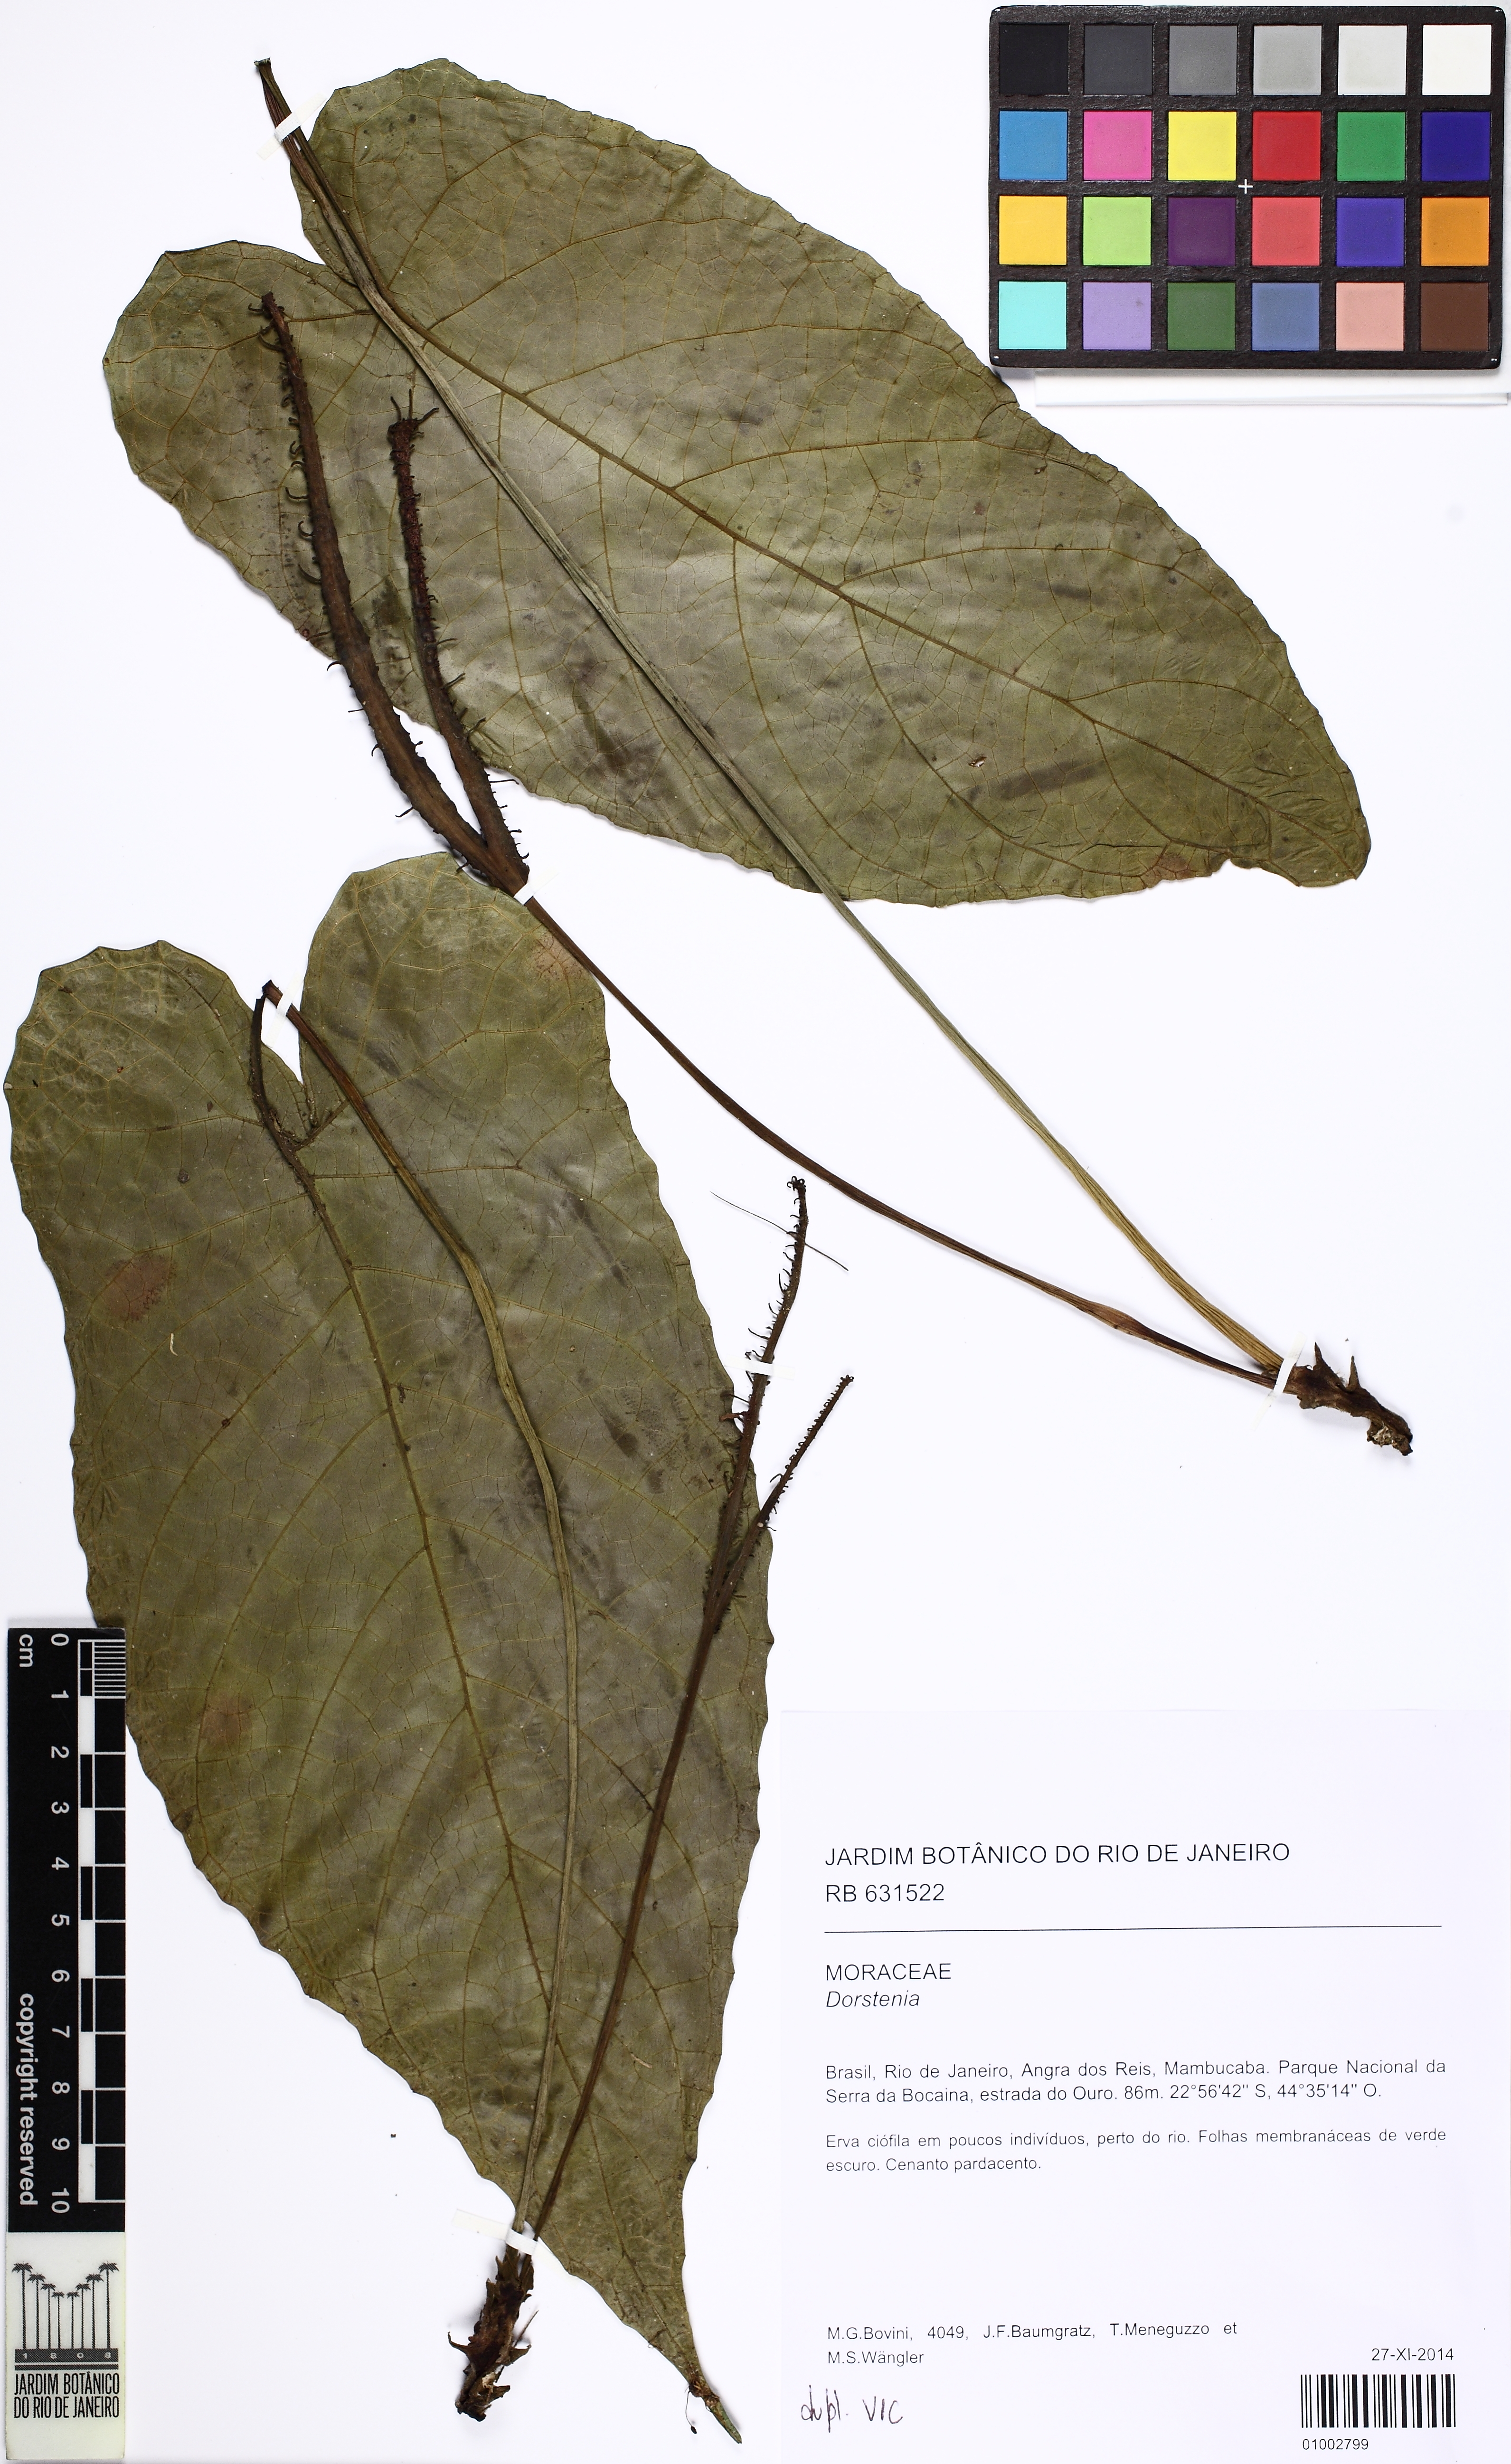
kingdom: Plantae
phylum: Tracheophyta
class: Magnoliopsida
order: Rosales
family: Moraceae
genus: Dorstenia
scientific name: Dorstenia ramosa
